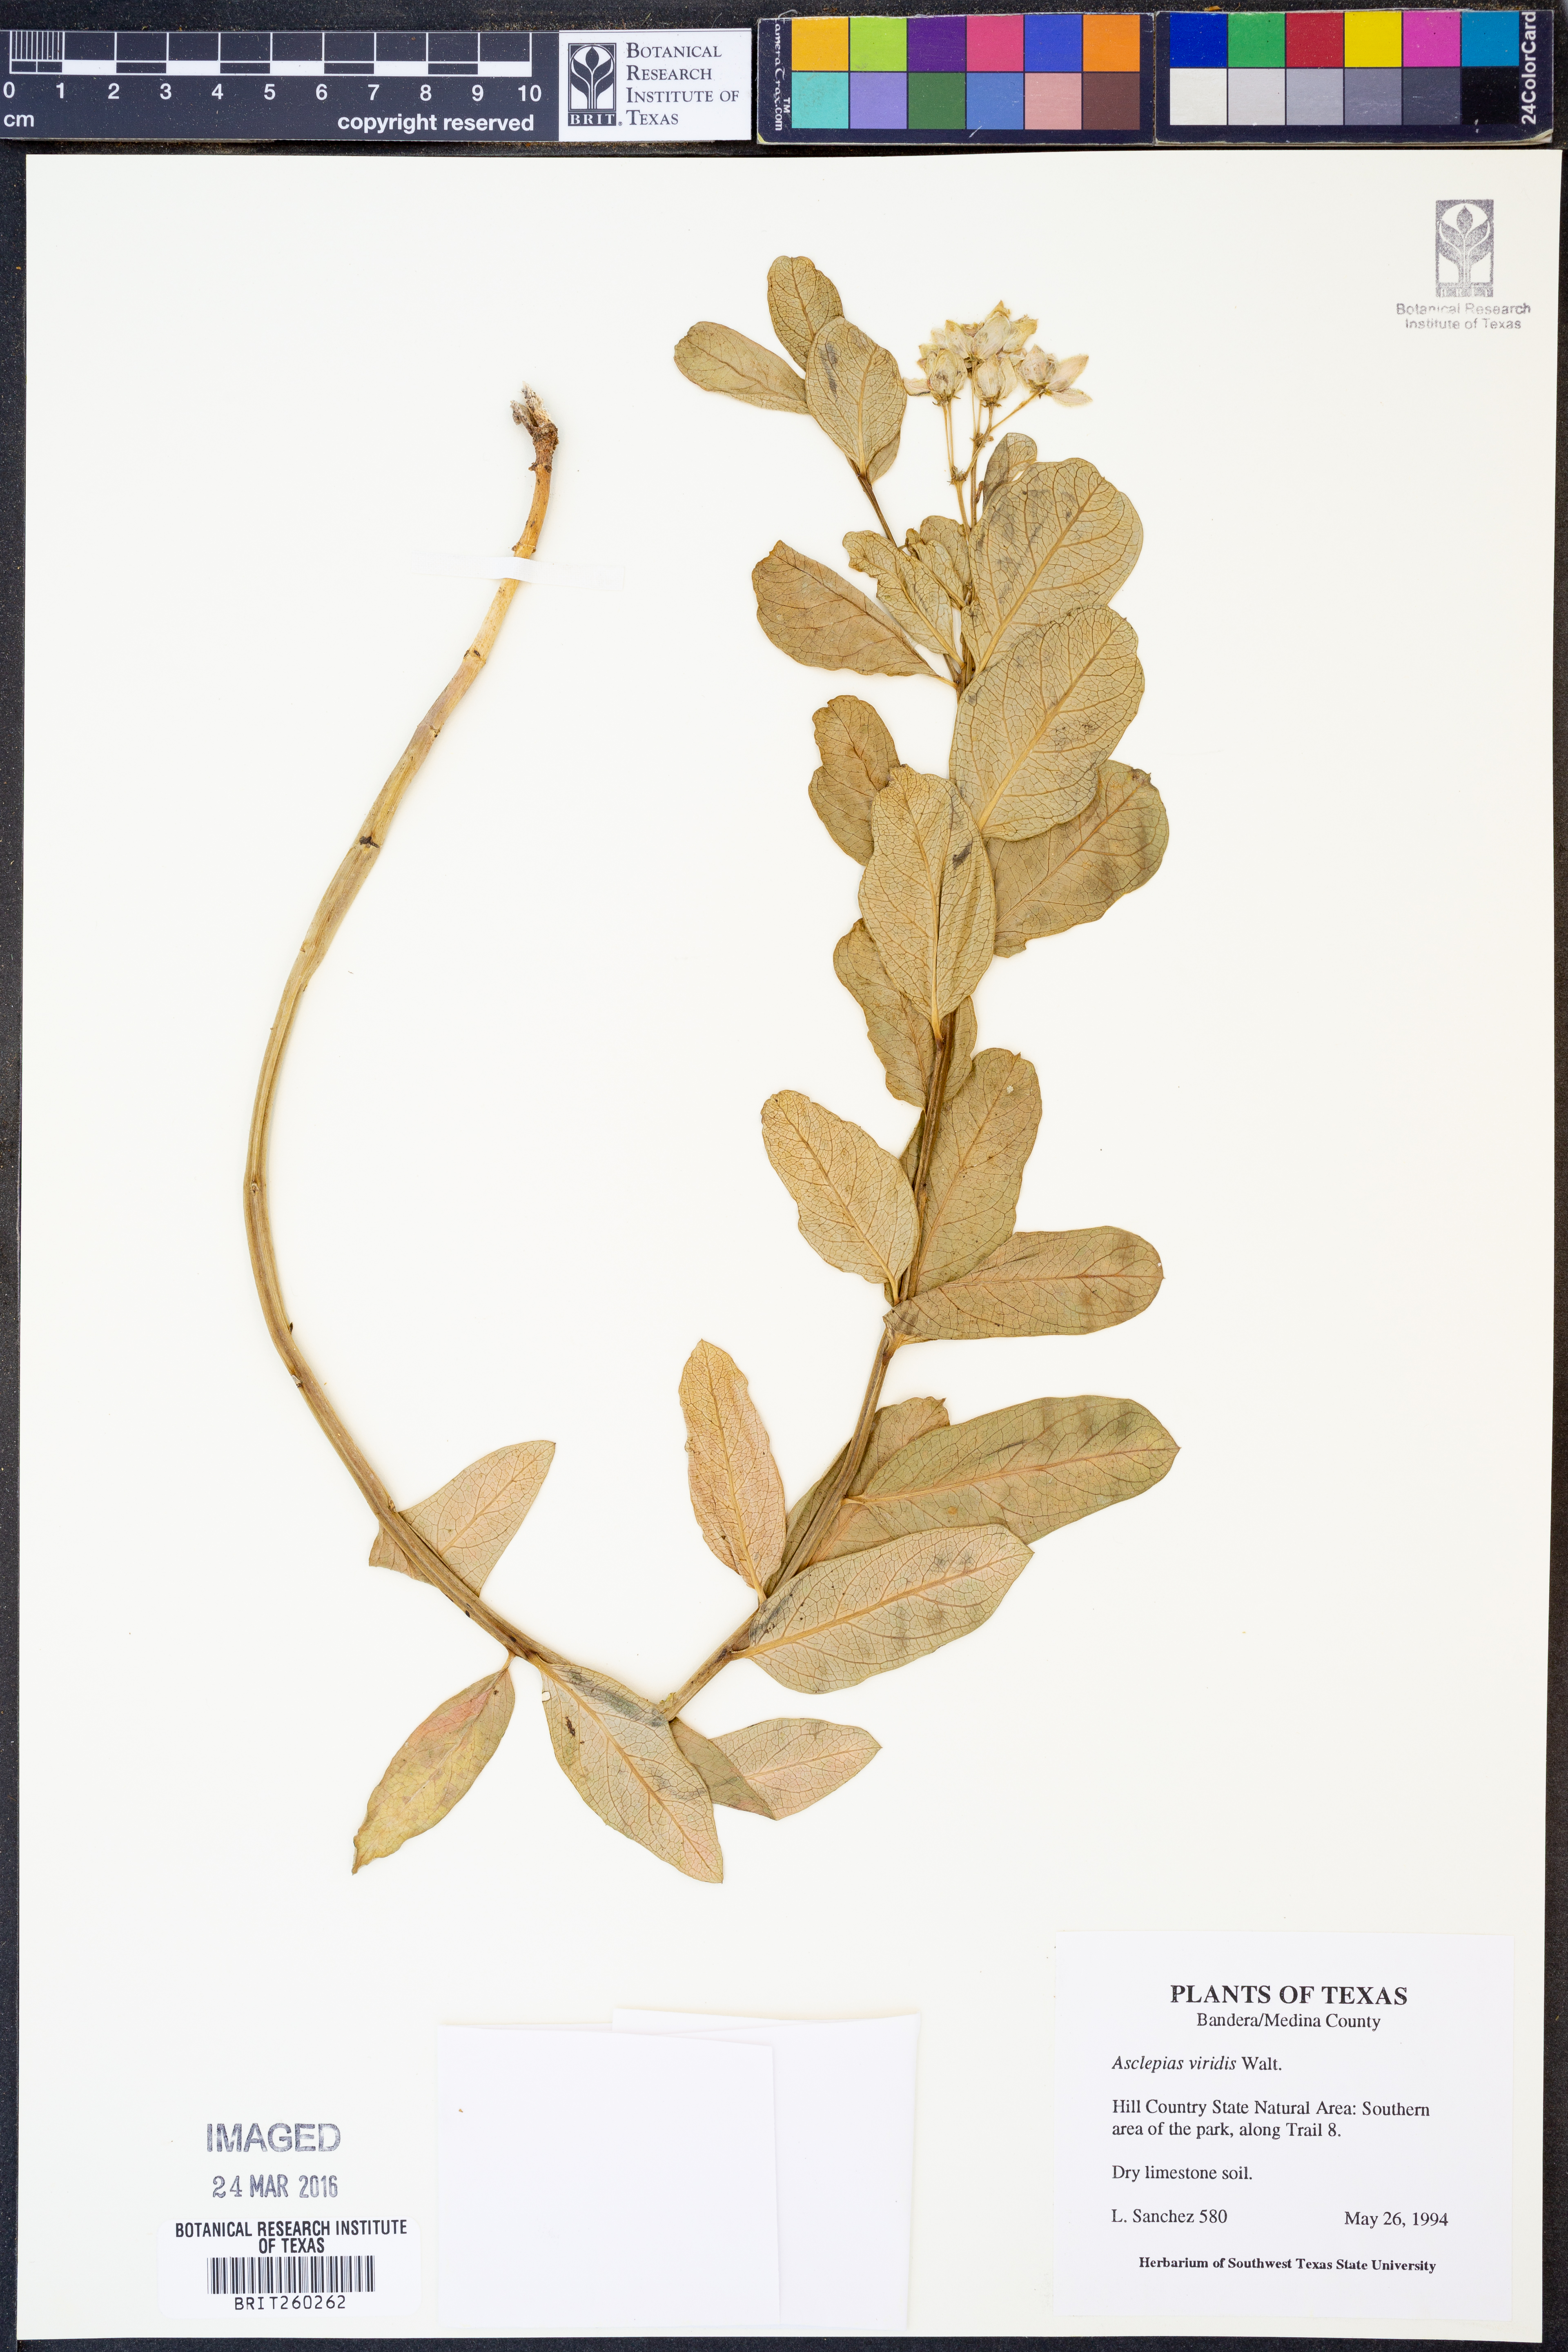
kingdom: Plantae
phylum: Tracheophyta
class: Magnoliopsida
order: Gentianales
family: Apocynaceae
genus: Asclepias
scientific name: Asclepias viridis
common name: Antelope-horns
